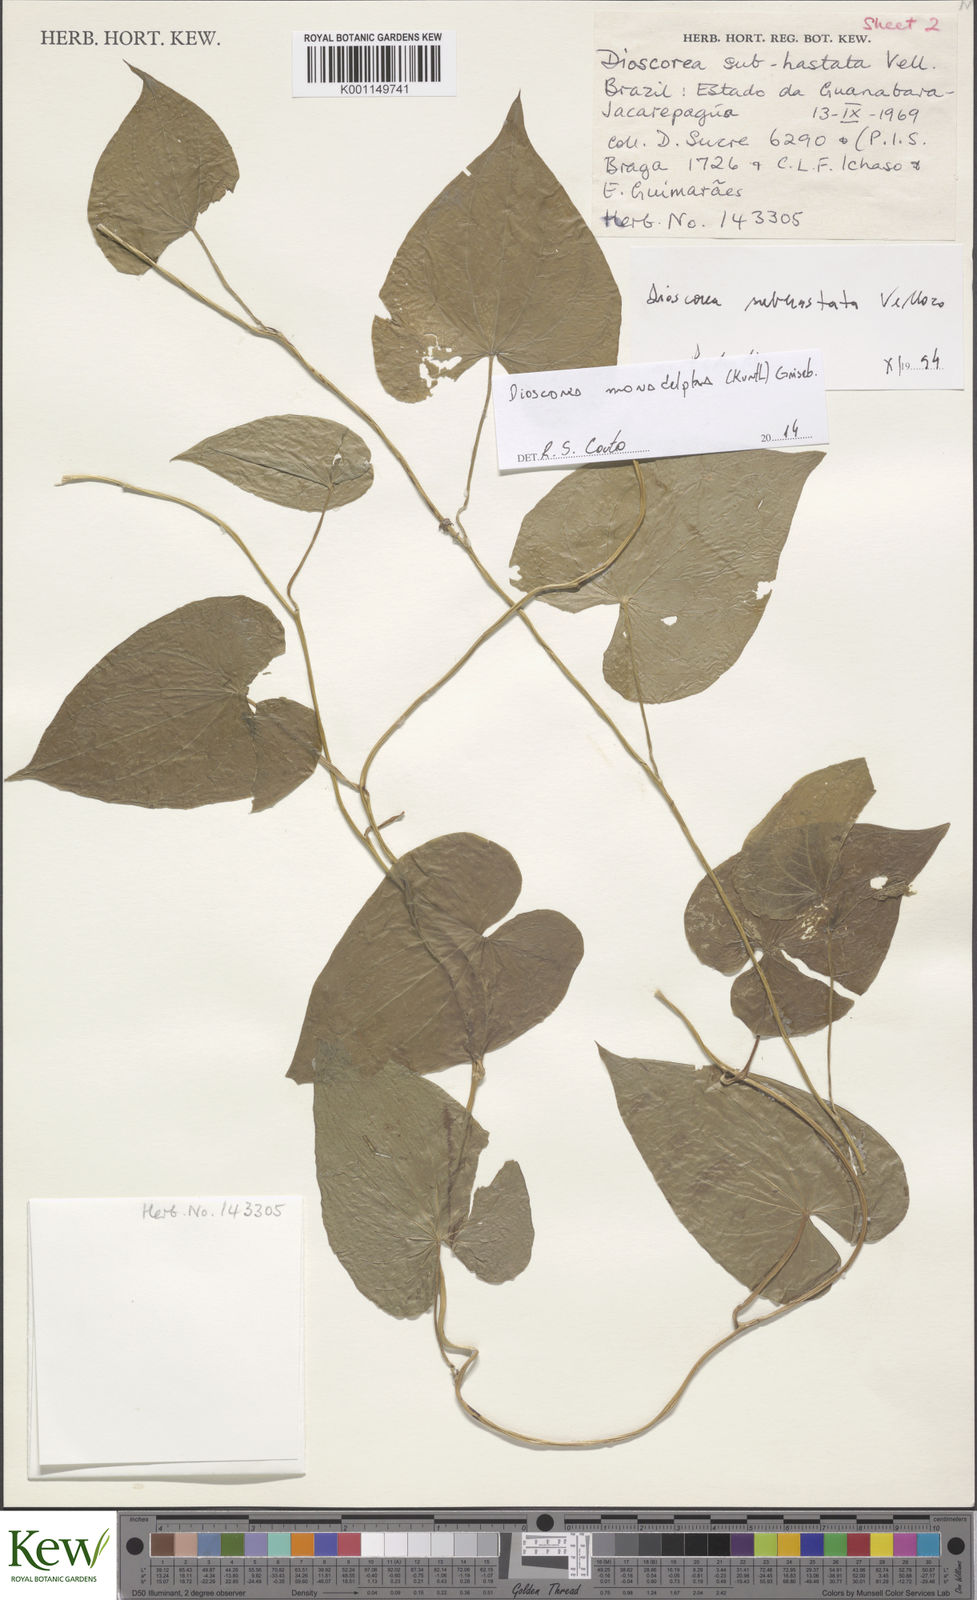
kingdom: Plantae
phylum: Tracheophyta
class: Liliopsida
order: Dioscoreales
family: Dioscoreaceae
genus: Dioscorea
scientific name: Dioscorea monadelpha
